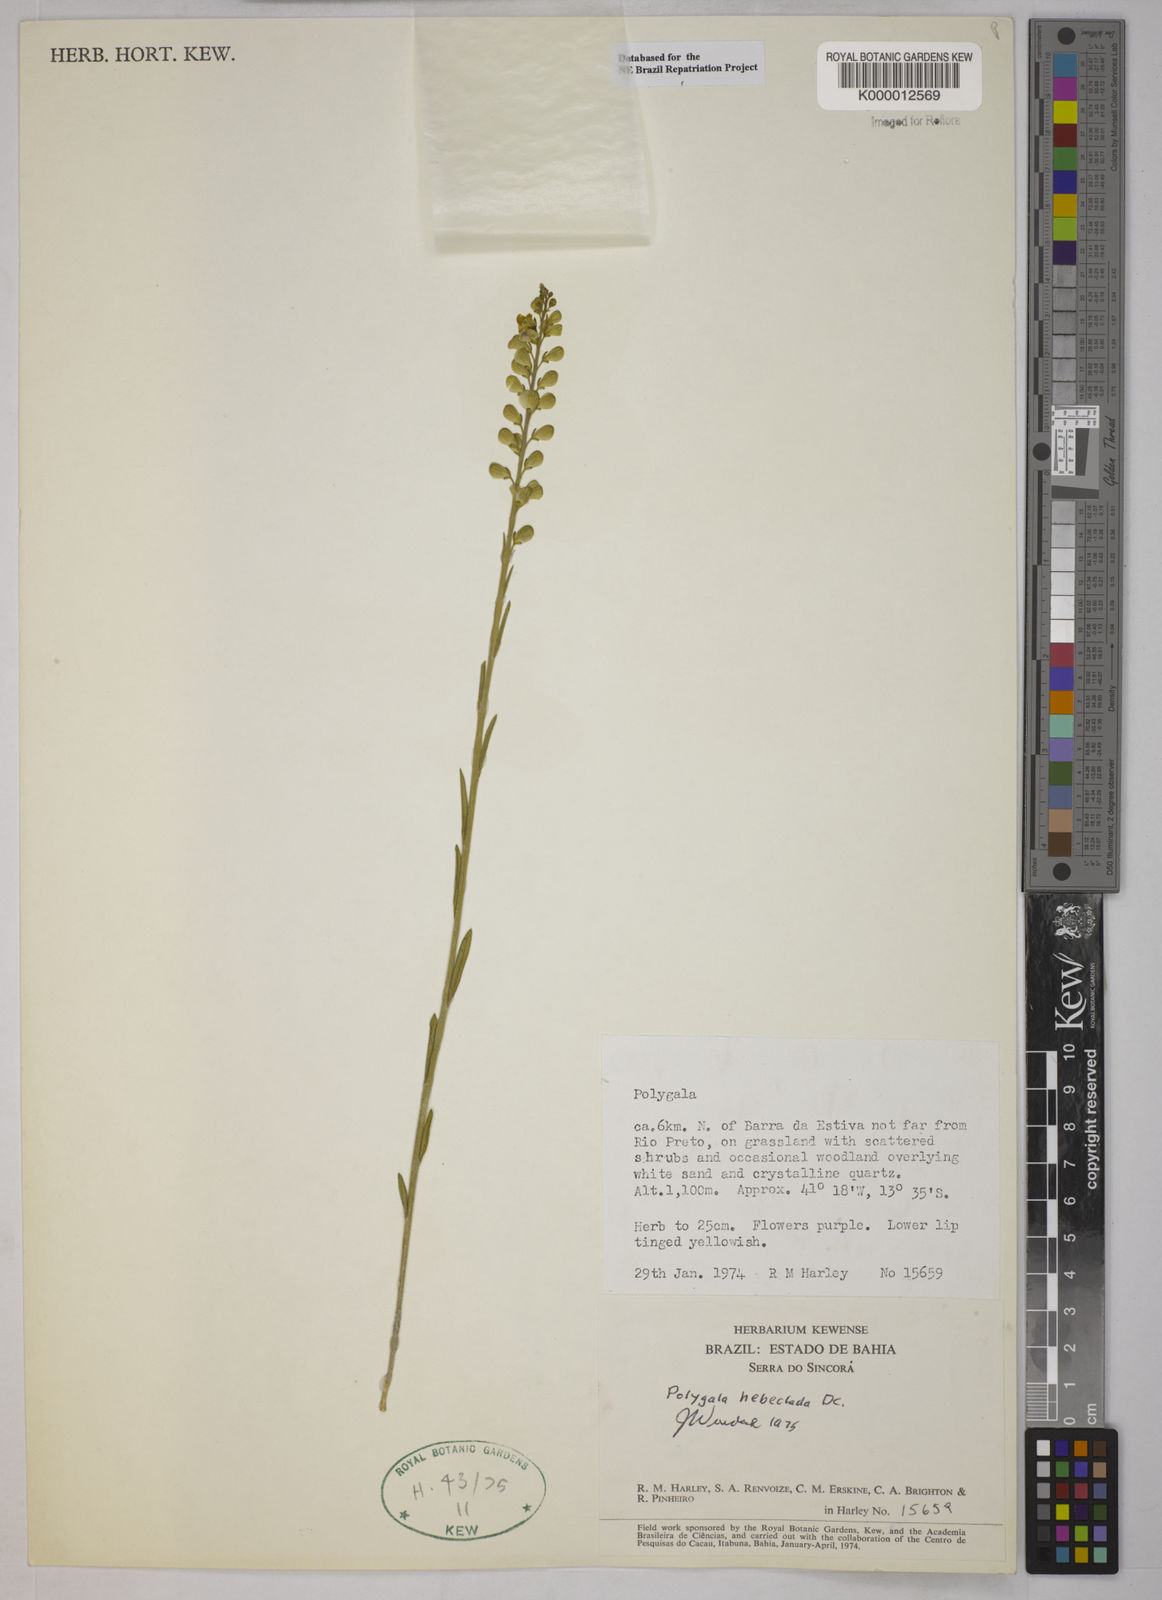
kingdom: Plantae
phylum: Tracheophyta
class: Magnoliopsida
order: Fabales
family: Polygalaceae
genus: Asemeia
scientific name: Asemeia hebeclada
